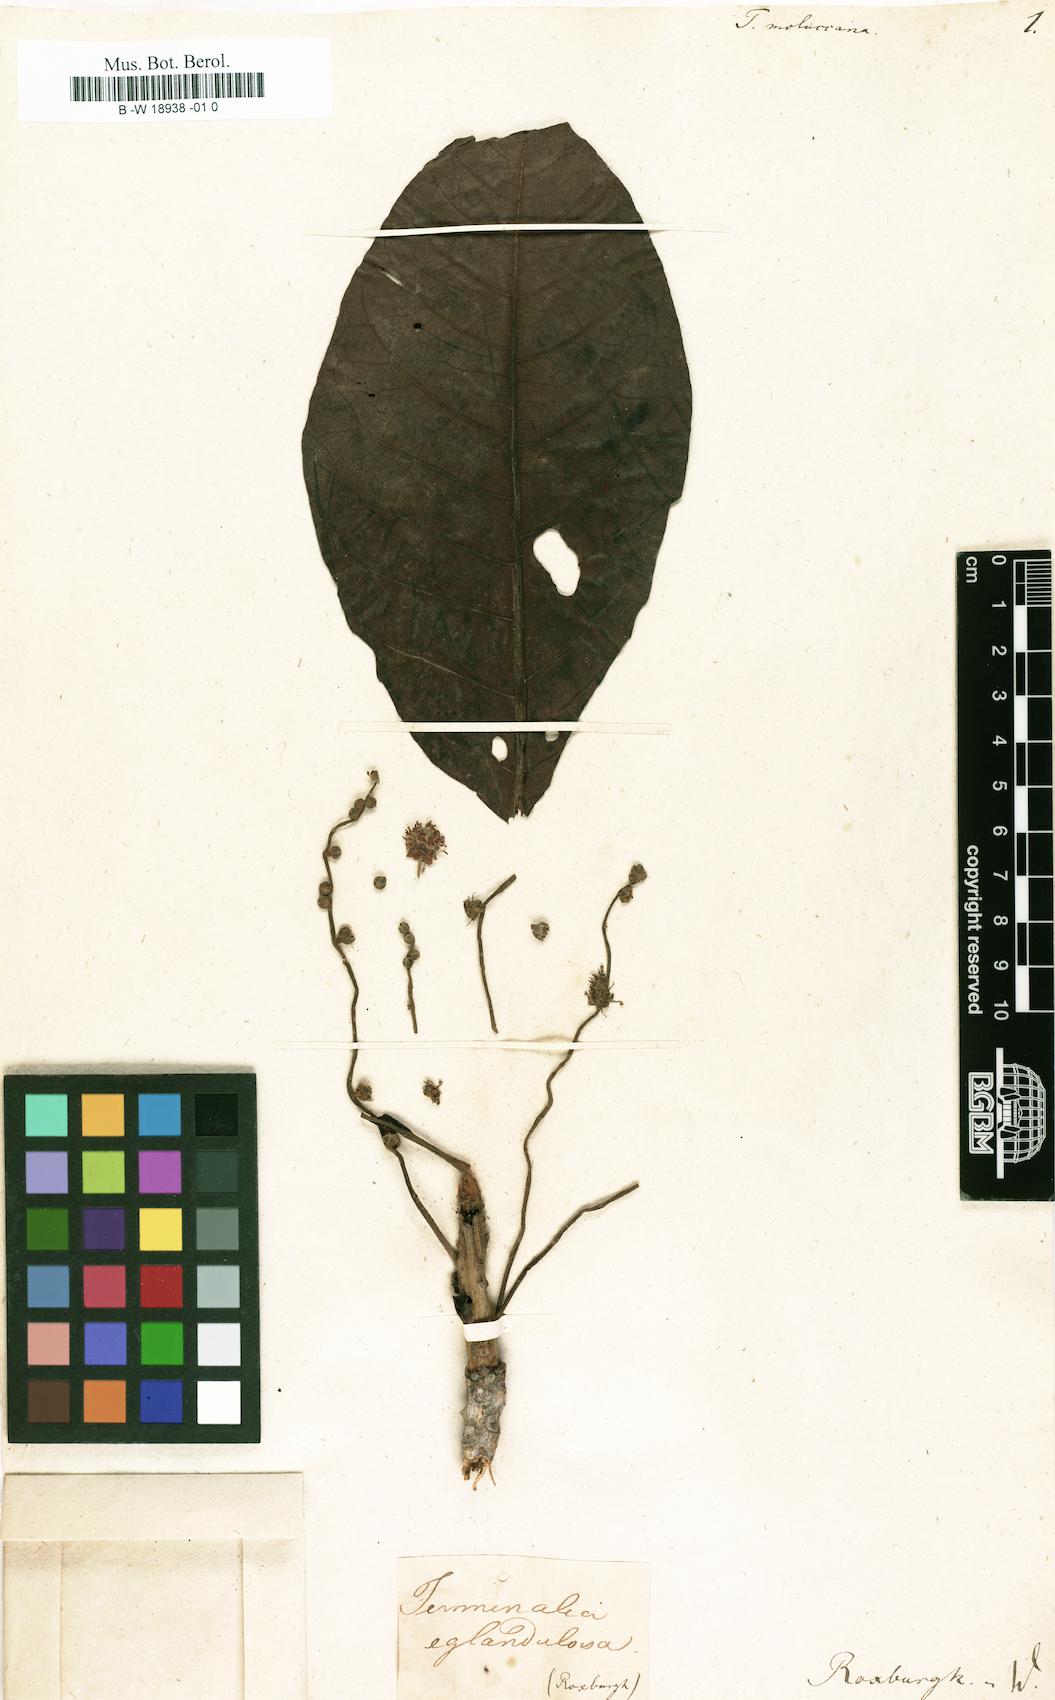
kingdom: Plantae
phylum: Tracheophyta
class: Magnoliopsida
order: Myrtales
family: Combretaceae
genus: Terminalia
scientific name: Terminalia moluccana
